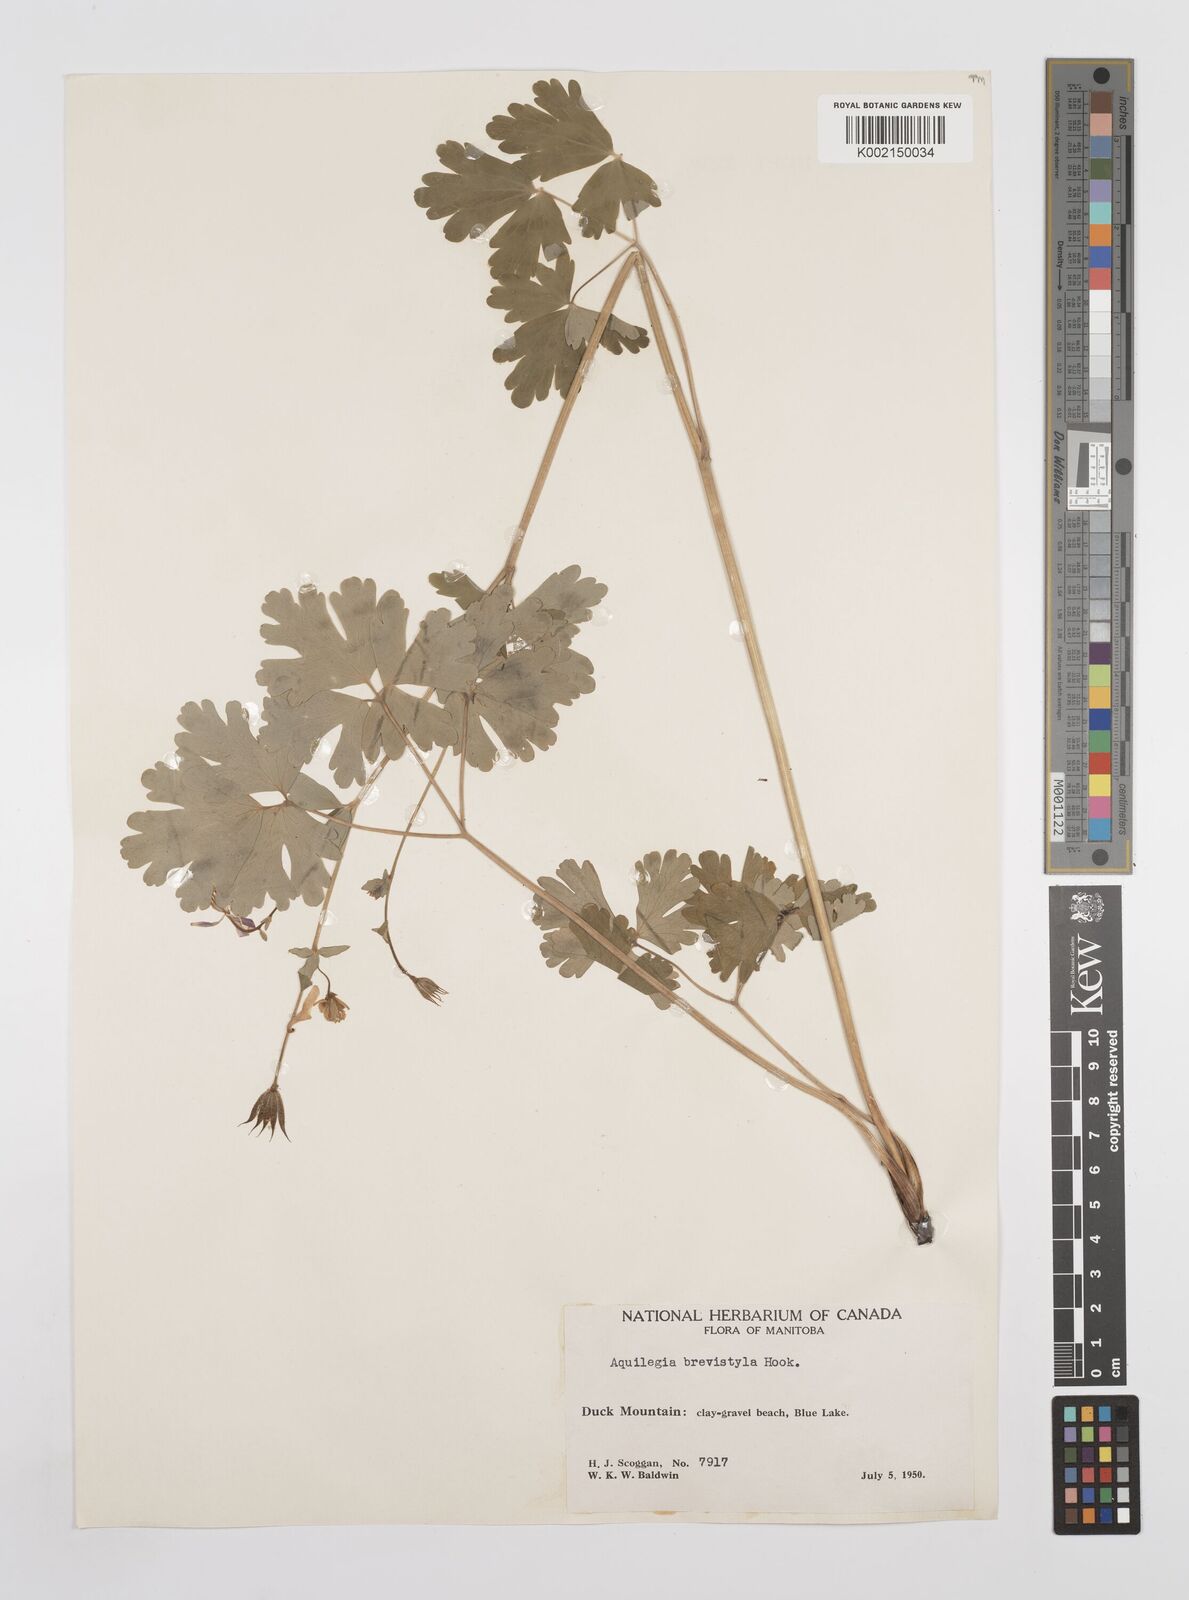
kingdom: Plantae
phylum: Tracheophyta
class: Magnoliopsida
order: Ranunculales
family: Ranunculaceae
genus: Aquilegia
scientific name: Aquilegia brevistyla
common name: Yukon columbine
